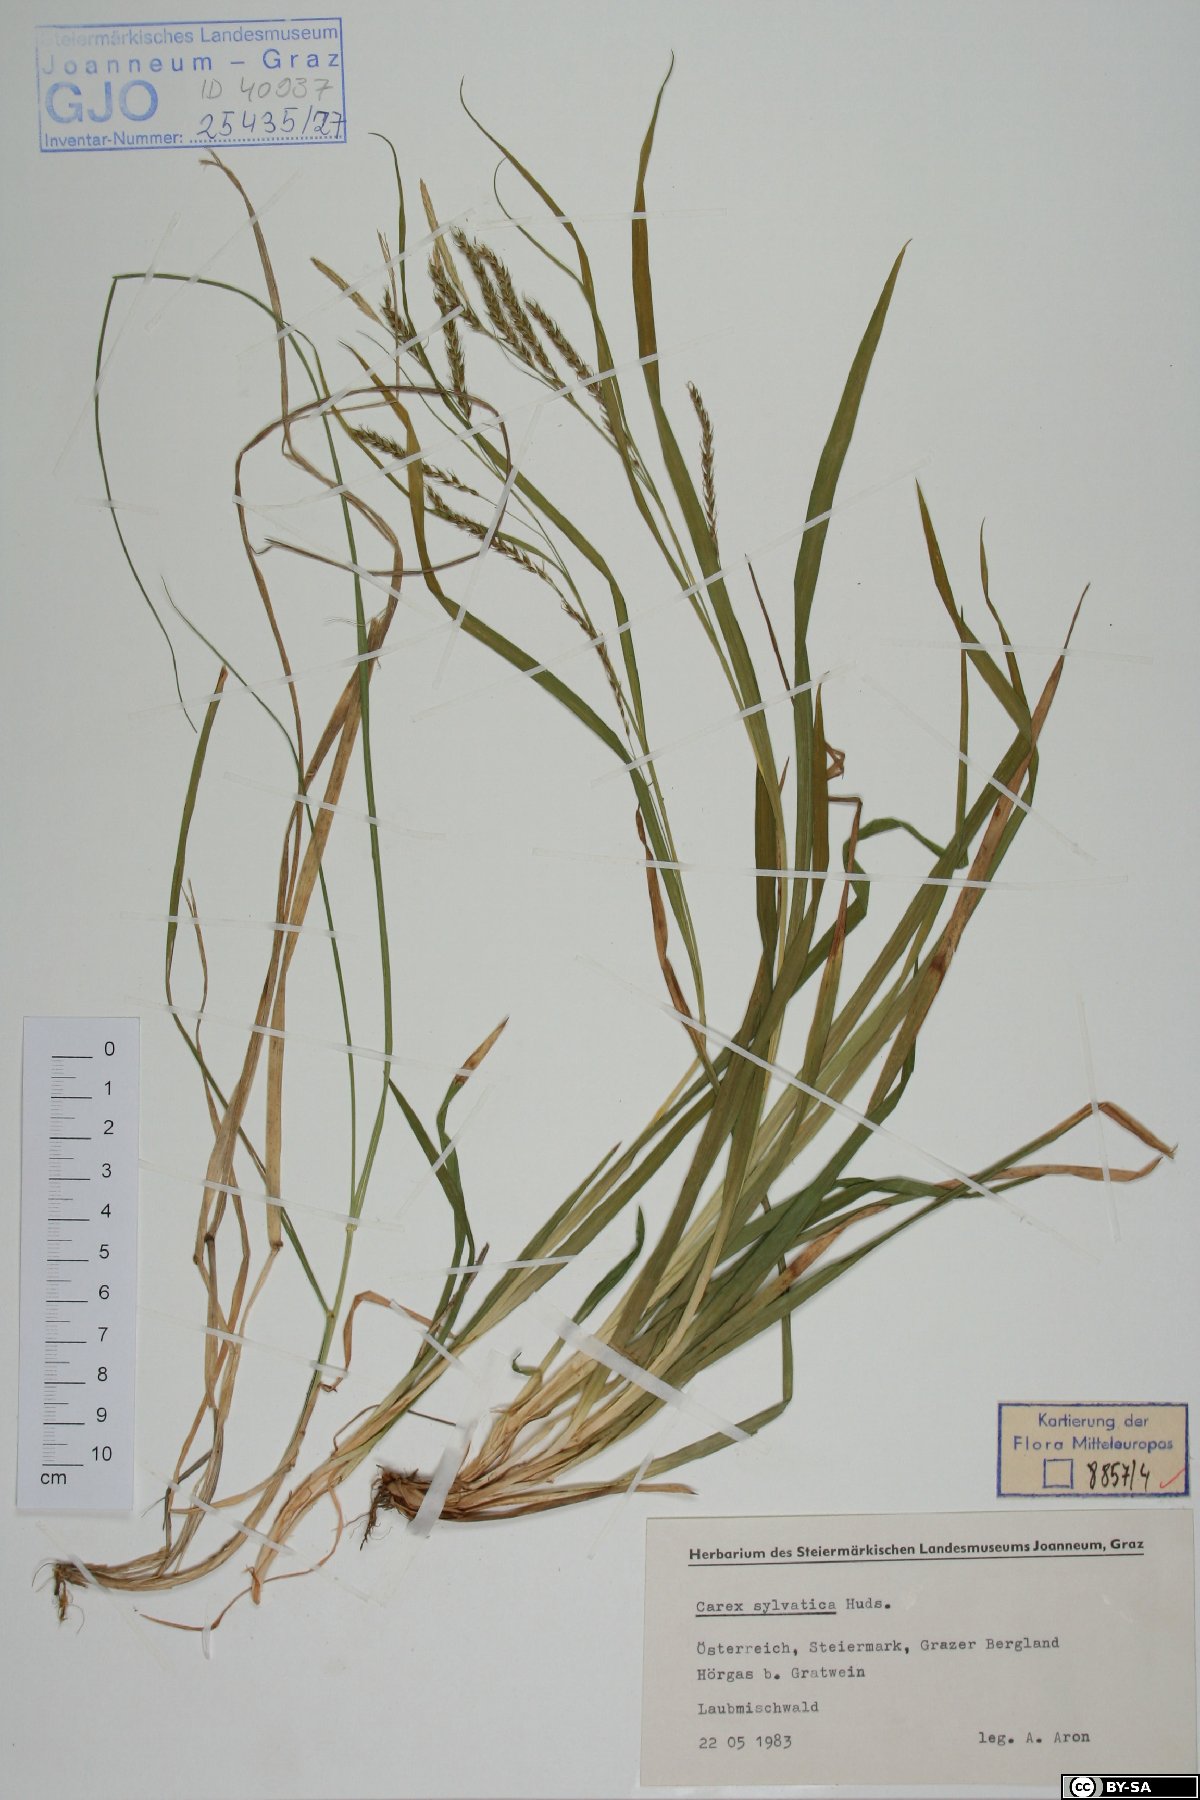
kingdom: Plantae
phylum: Tracheophyta
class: Liliopsida
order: Poales
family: Cyperaceae
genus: Carex
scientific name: Carex sylvatica
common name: Wood-sedge
